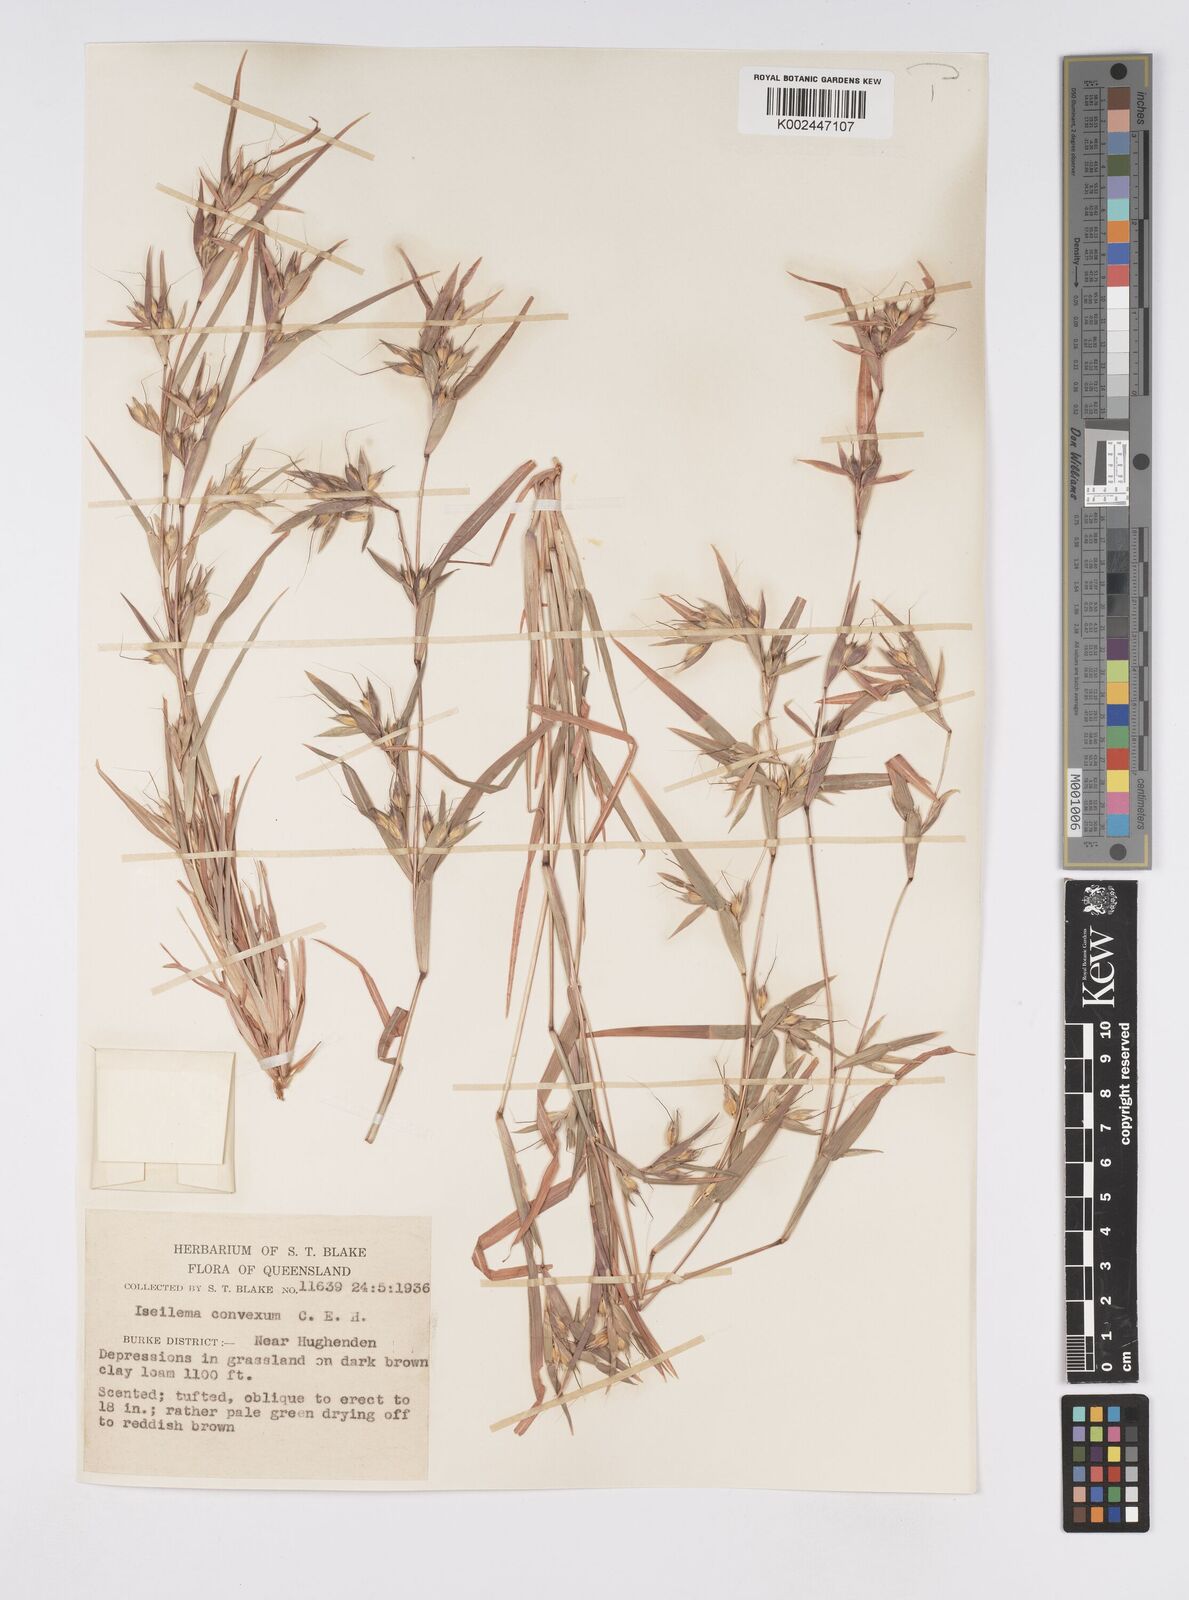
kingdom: Plantae
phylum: Tracheophyta
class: Liliopsida
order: Poales
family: Poaceae
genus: Iseilema
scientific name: Iseilema convexum
